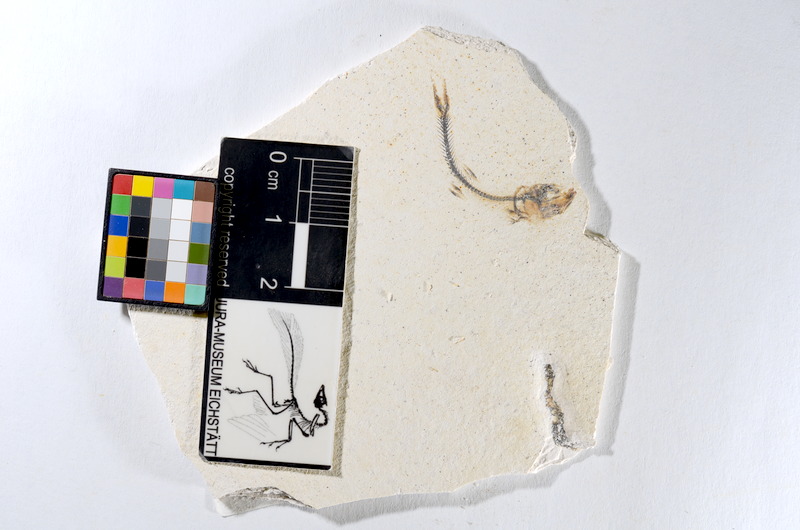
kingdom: Animalia
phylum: Chordata
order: Salmoniformes
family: Orthogonikleithridae
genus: Orthogonikleithrus
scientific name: Orthogonikleithrus hoelli
